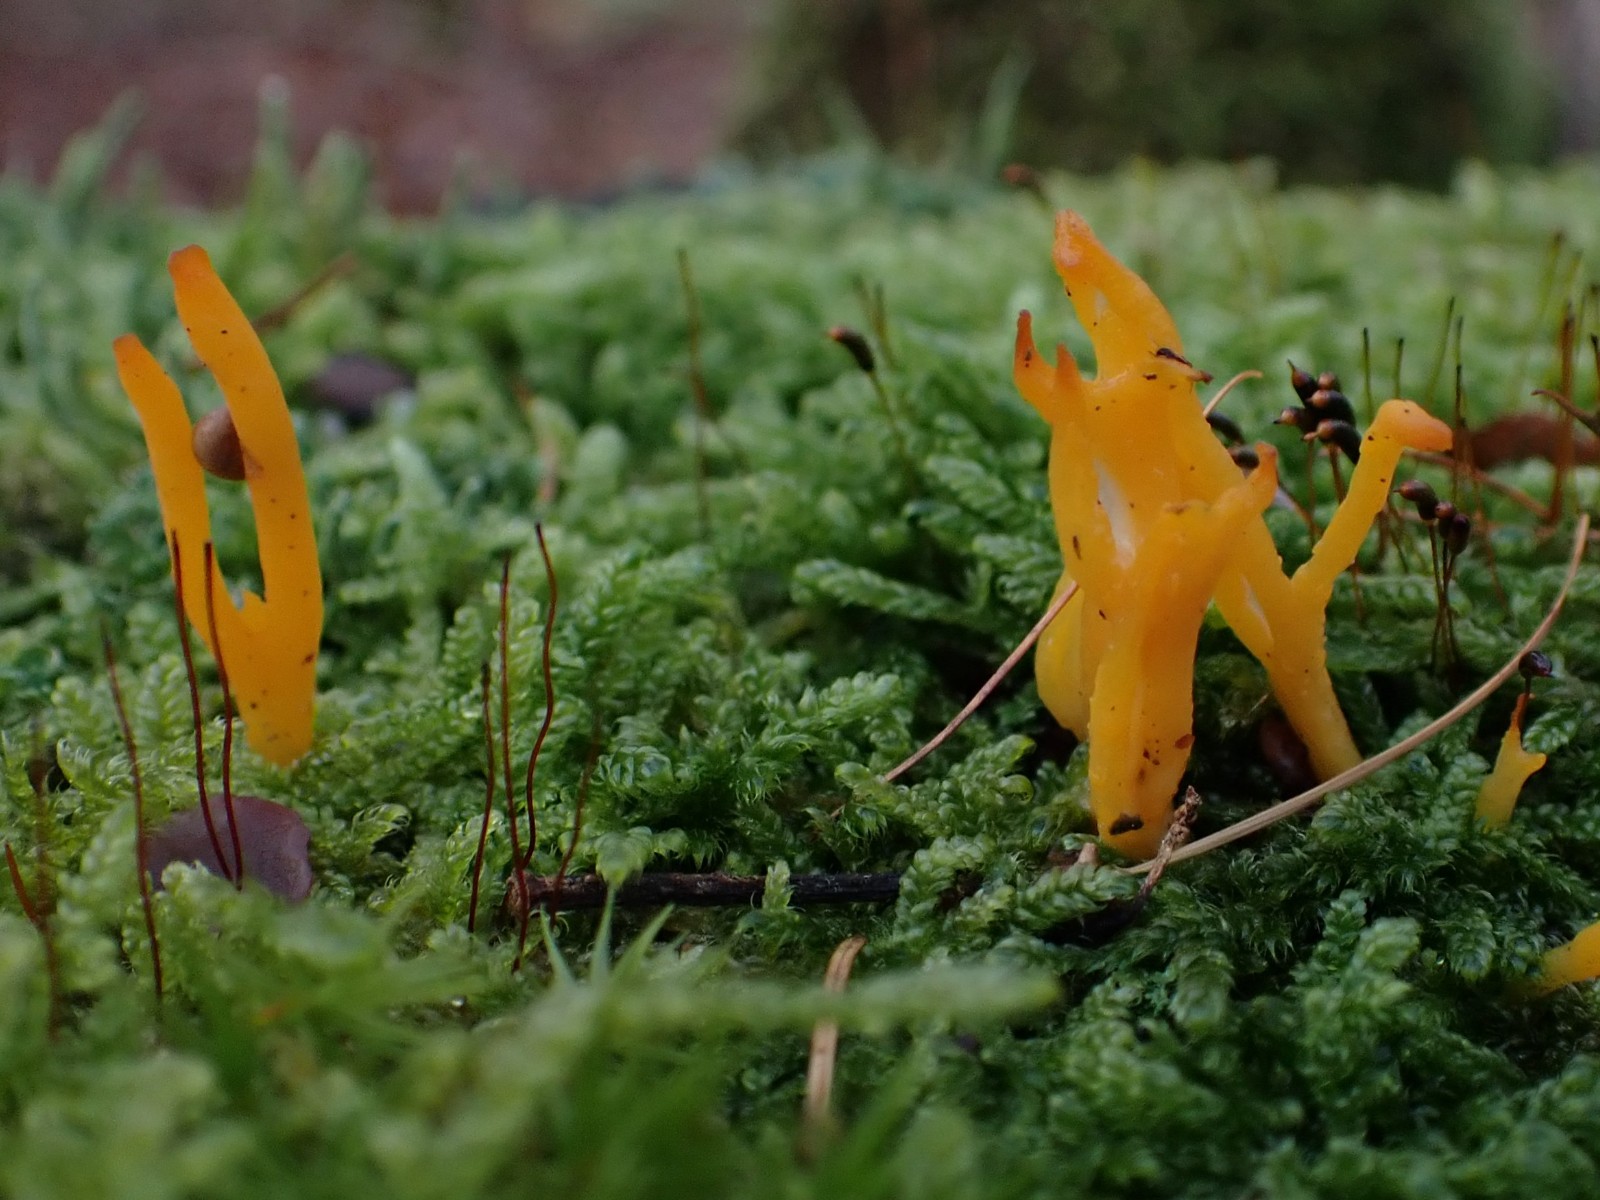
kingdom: Fungi
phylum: Basidiomycota
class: Dacrymycetes
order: Dacrymycetales
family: Dacrymycetaceae
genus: Calocera
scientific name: Calocera viscosa
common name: almindelig guldgaffel
